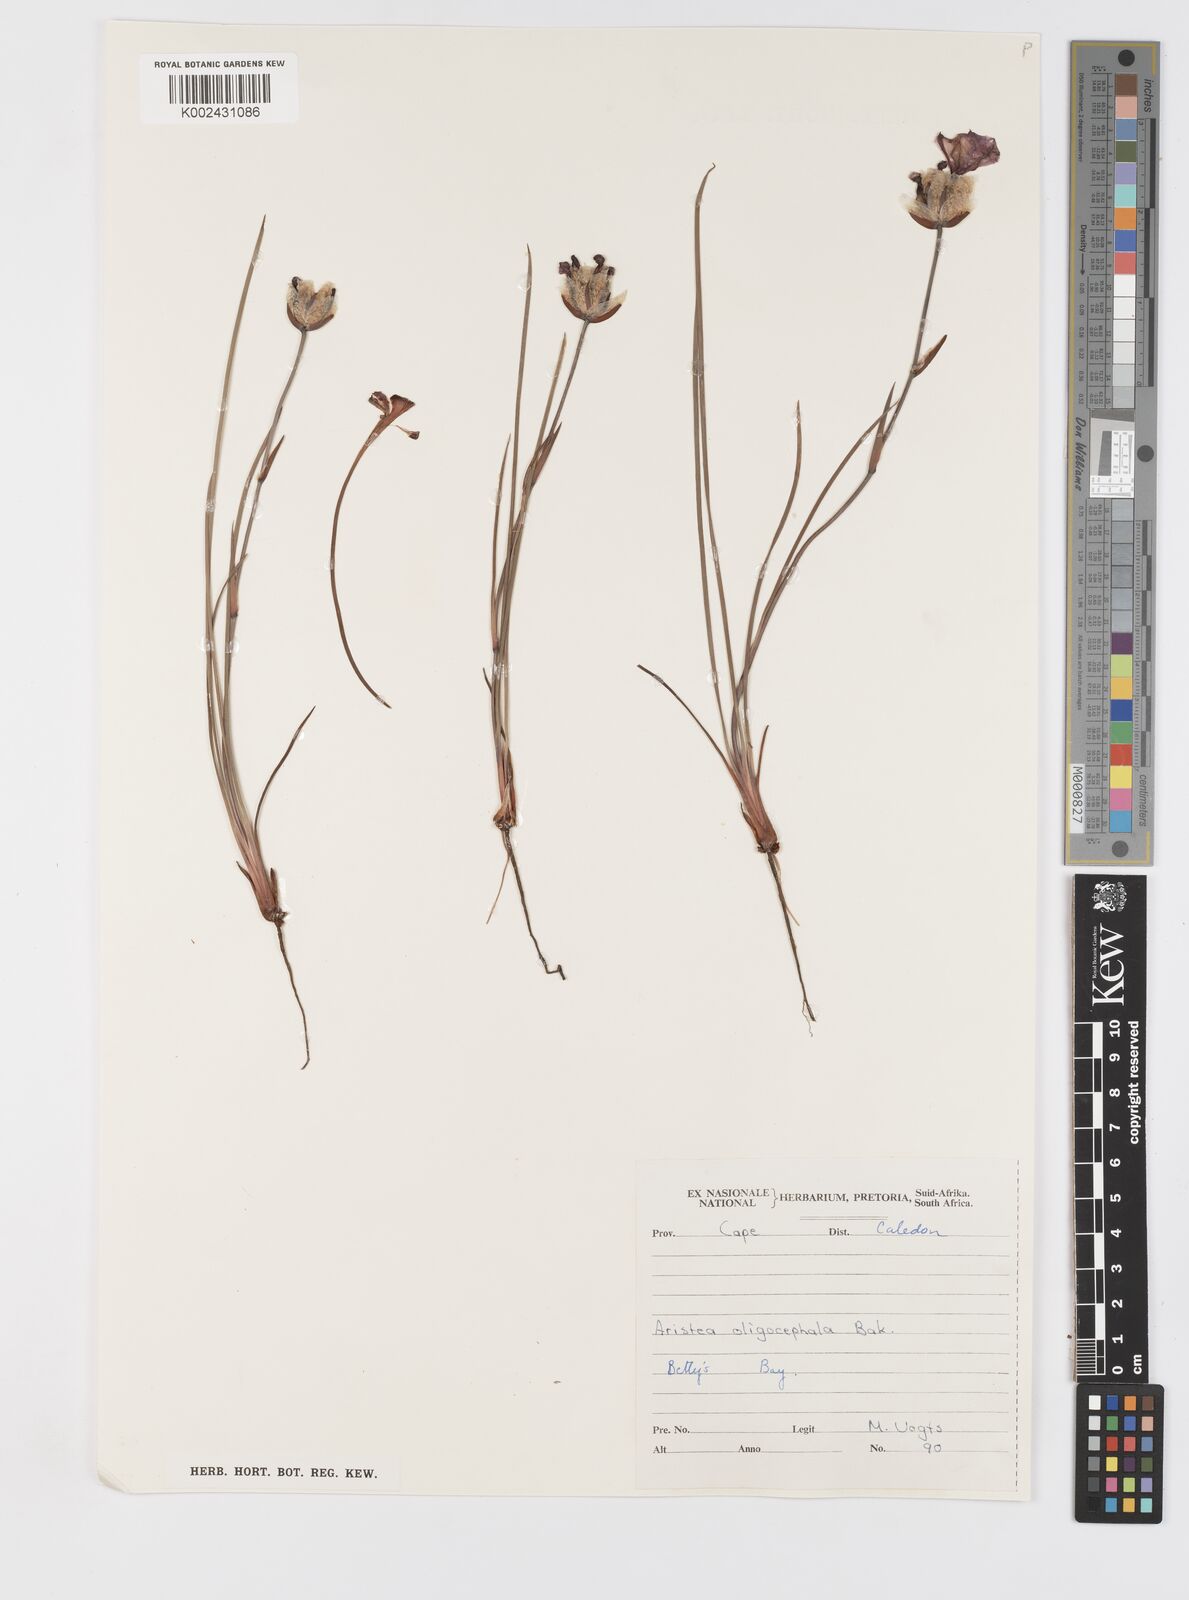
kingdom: Plantae
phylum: Tracheophyta
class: Liliopsida
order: Asparagales
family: Iridaceae
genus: Aristea
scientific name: Aristea oligocephala
